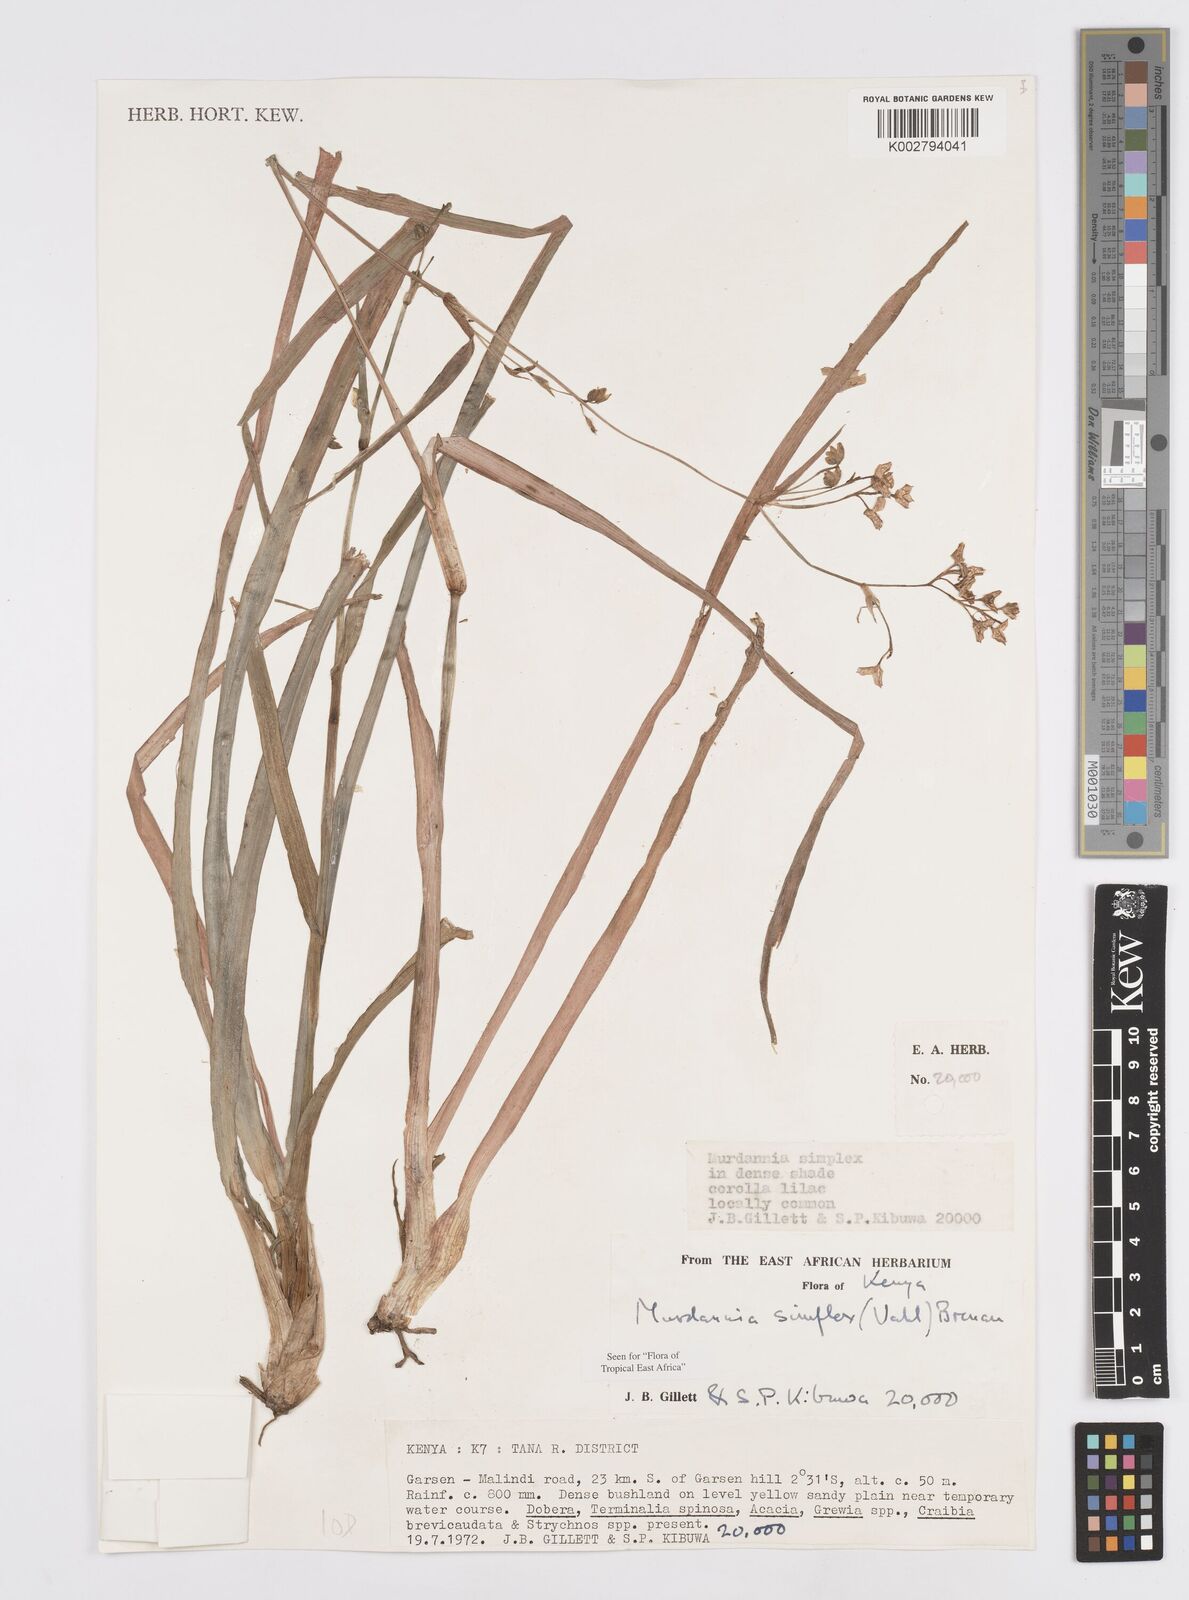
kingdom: Plantae
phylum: Tracheophyta
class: Liliopsida
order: Commelinales
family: Commelinaceae
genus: Murdannia
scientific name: Murdannia simplex
